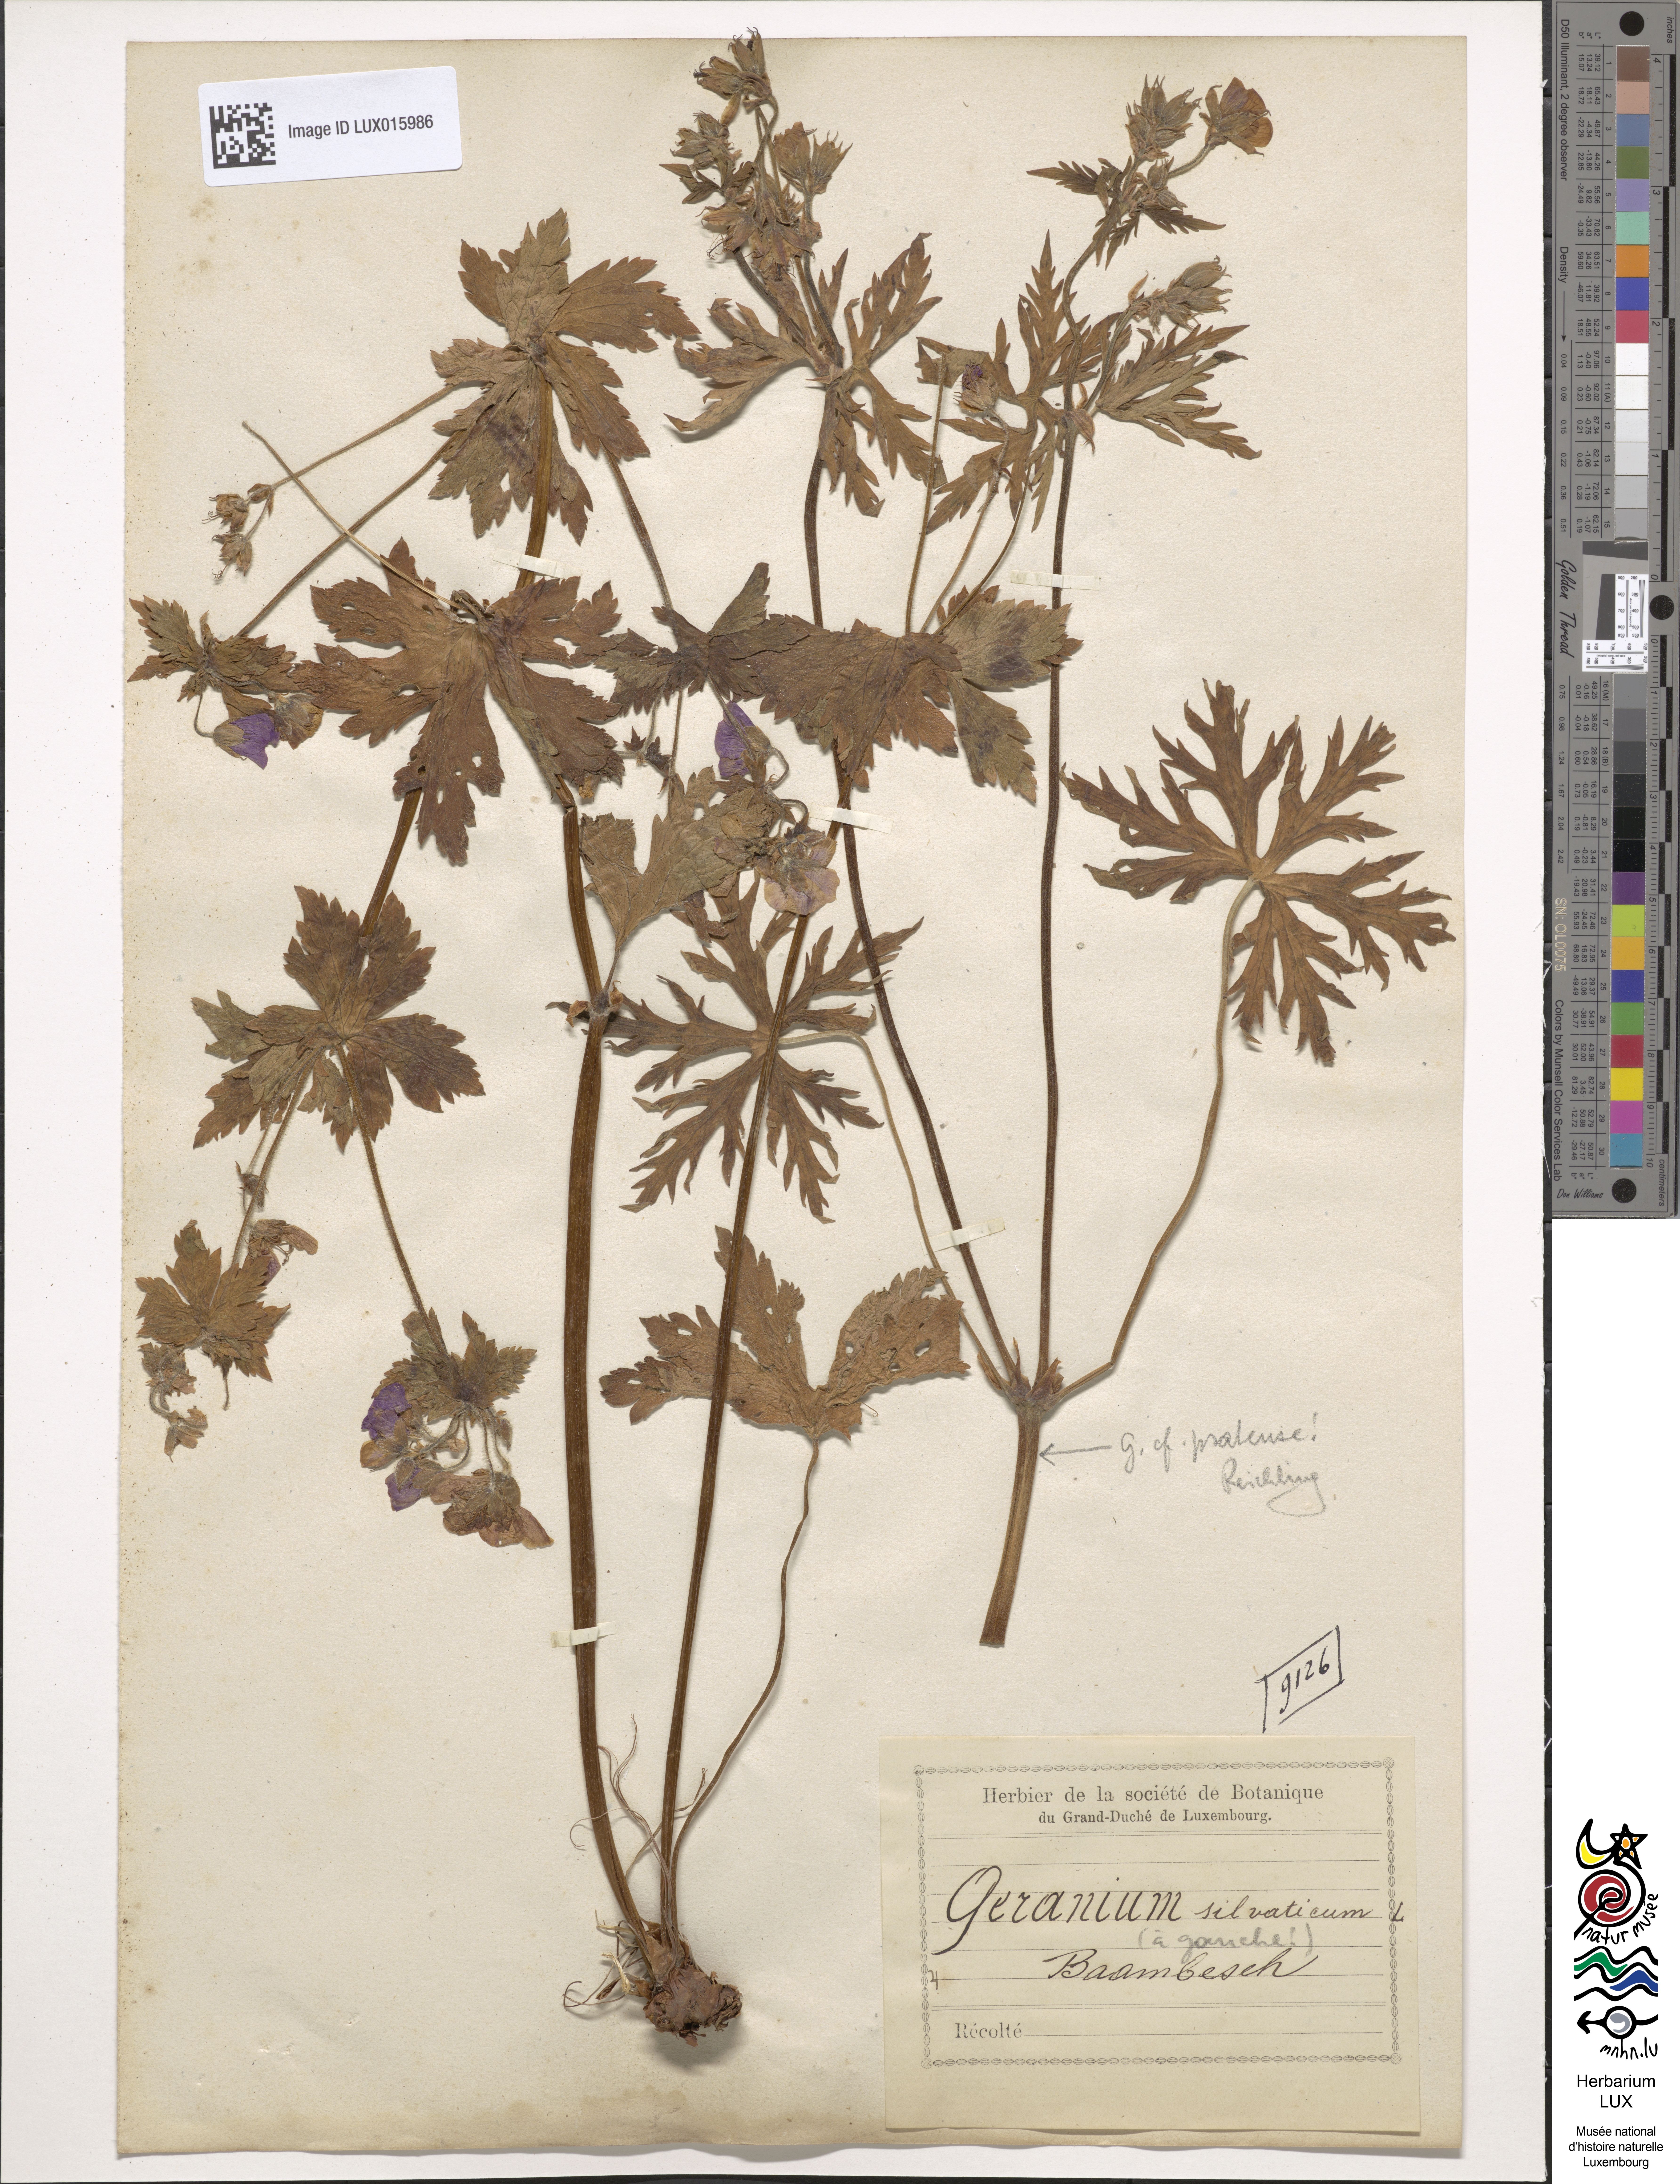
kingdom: Plantae
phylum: Tracheophyta
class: Magnoliopsida
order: Geraniales
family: Geraniaceae
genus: Geranium
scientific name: Geranium sylvaticum
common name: Wood crane's-bill
